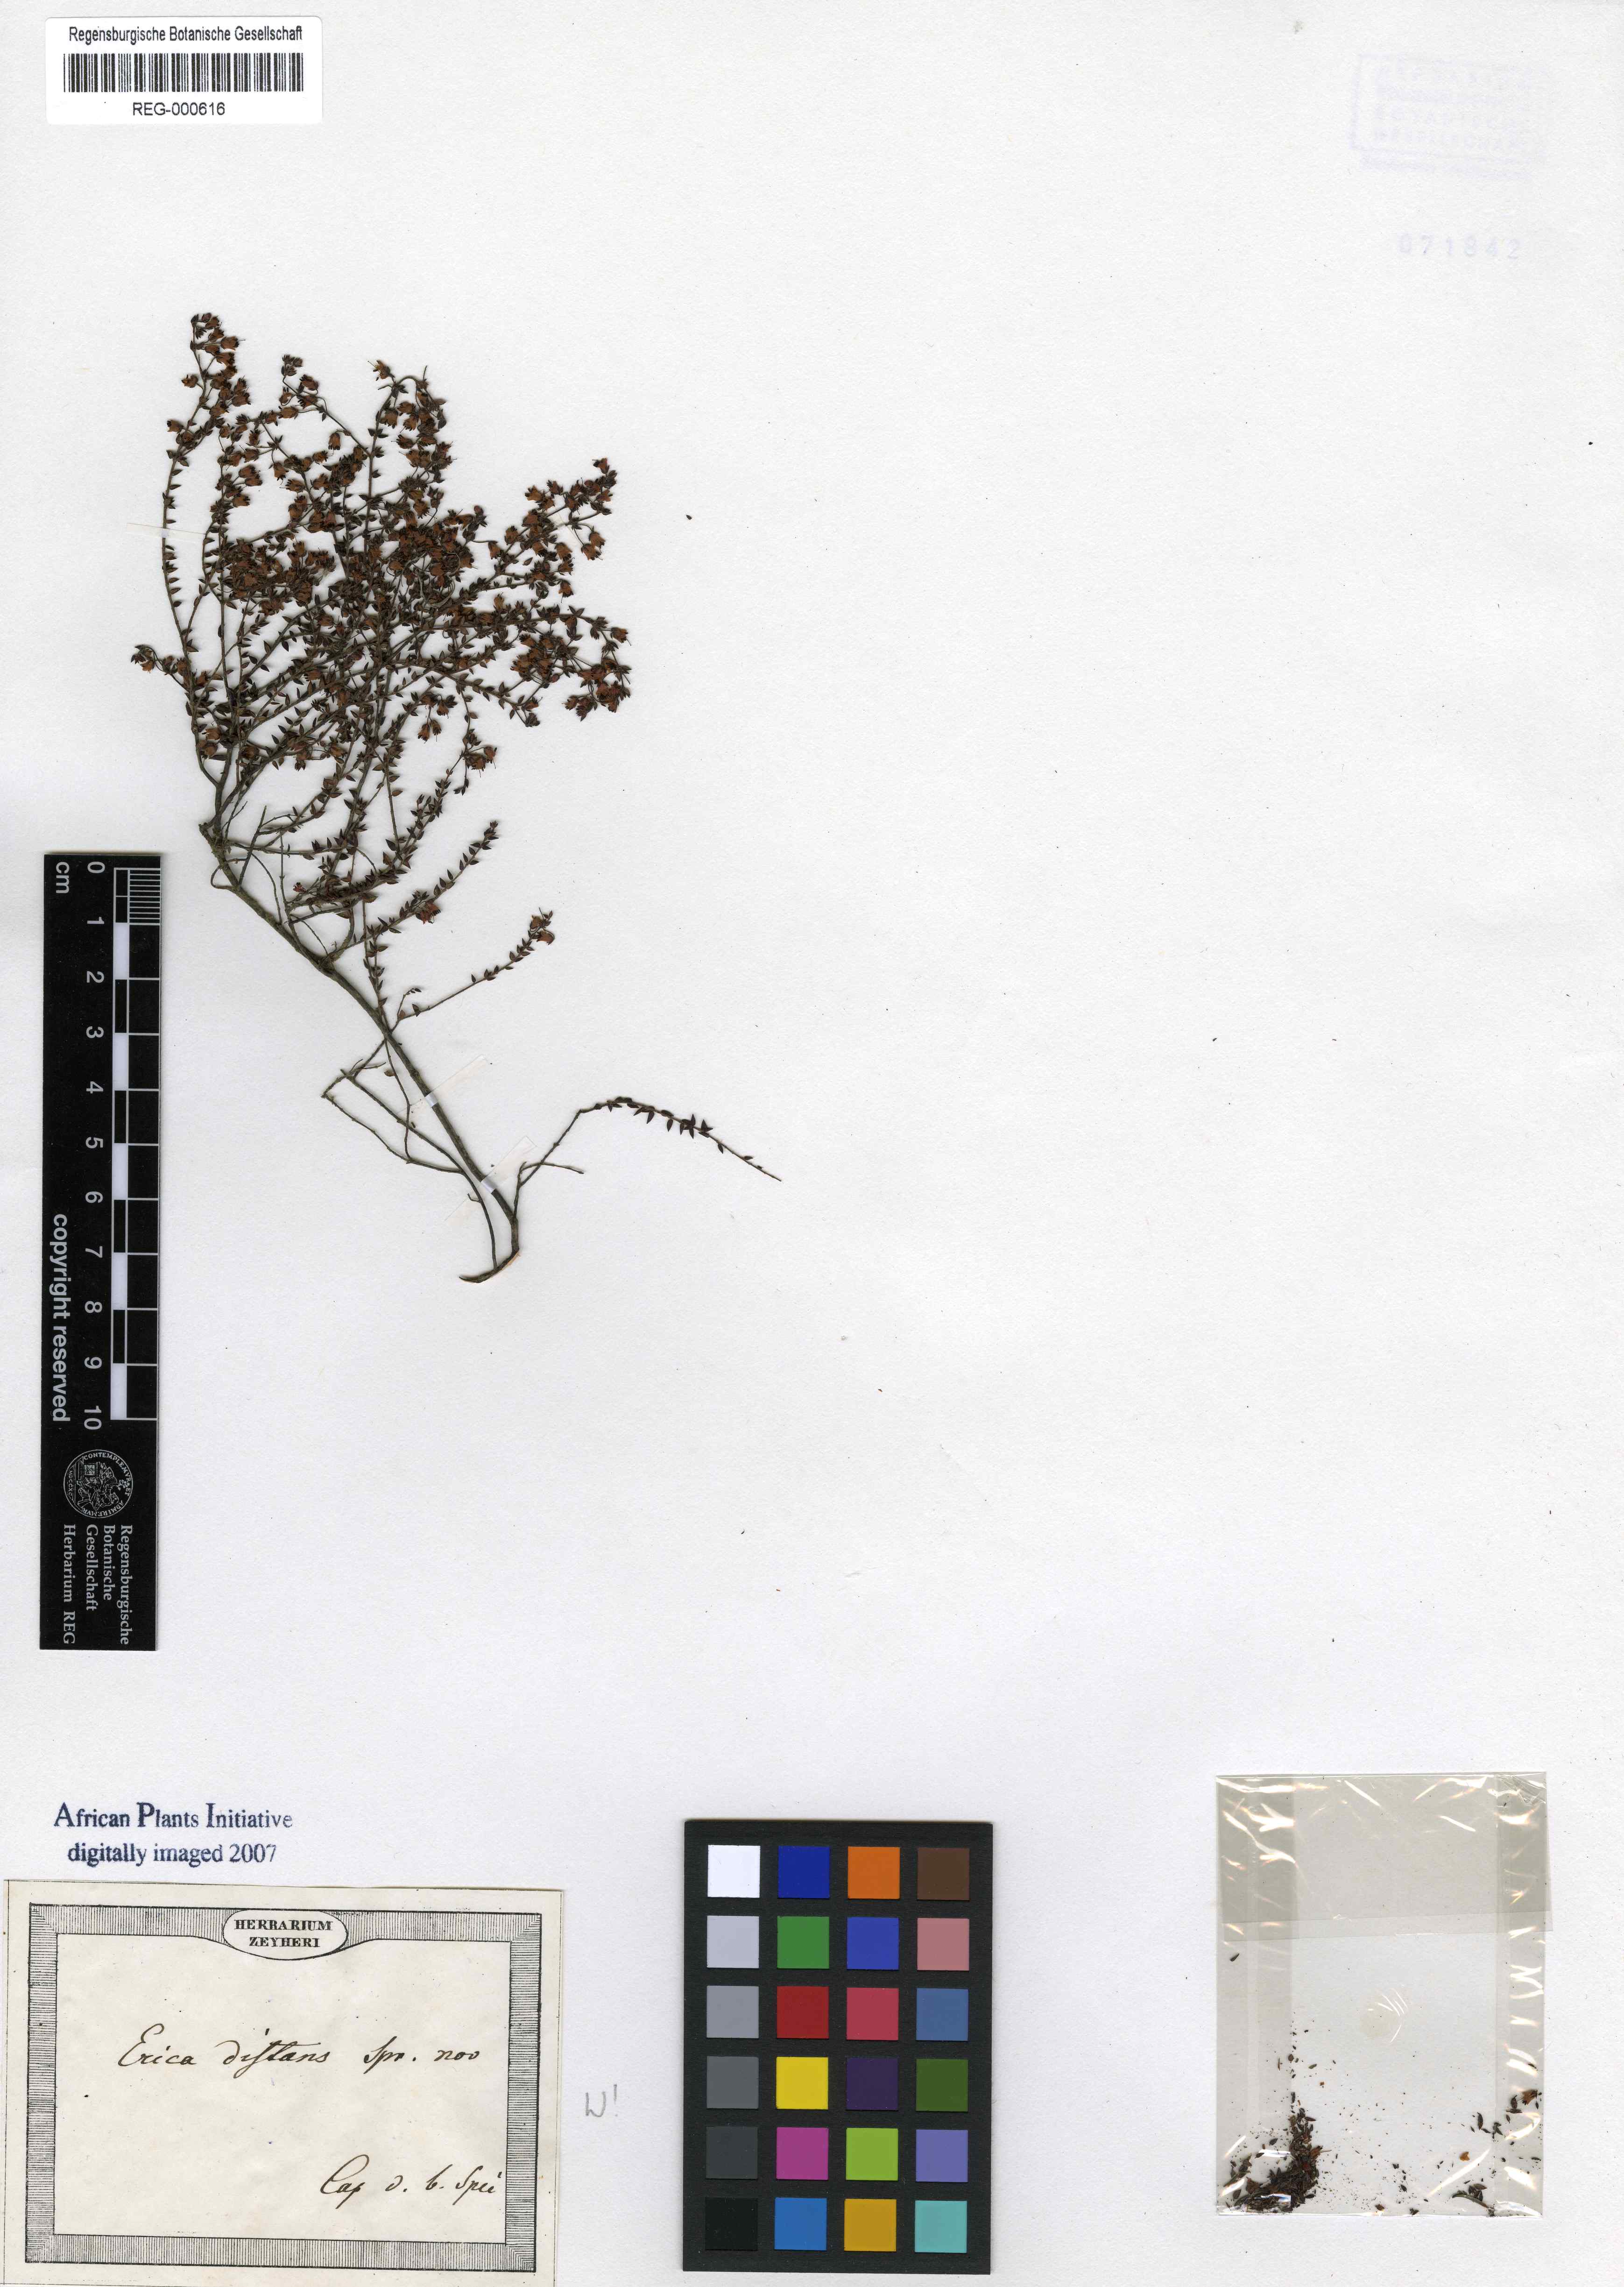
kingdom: Plantae
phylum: Tracheophyta
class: Magnoliopsida
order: Ericales
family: Ericaceae
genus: Erica
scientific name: Erica thimifolia
